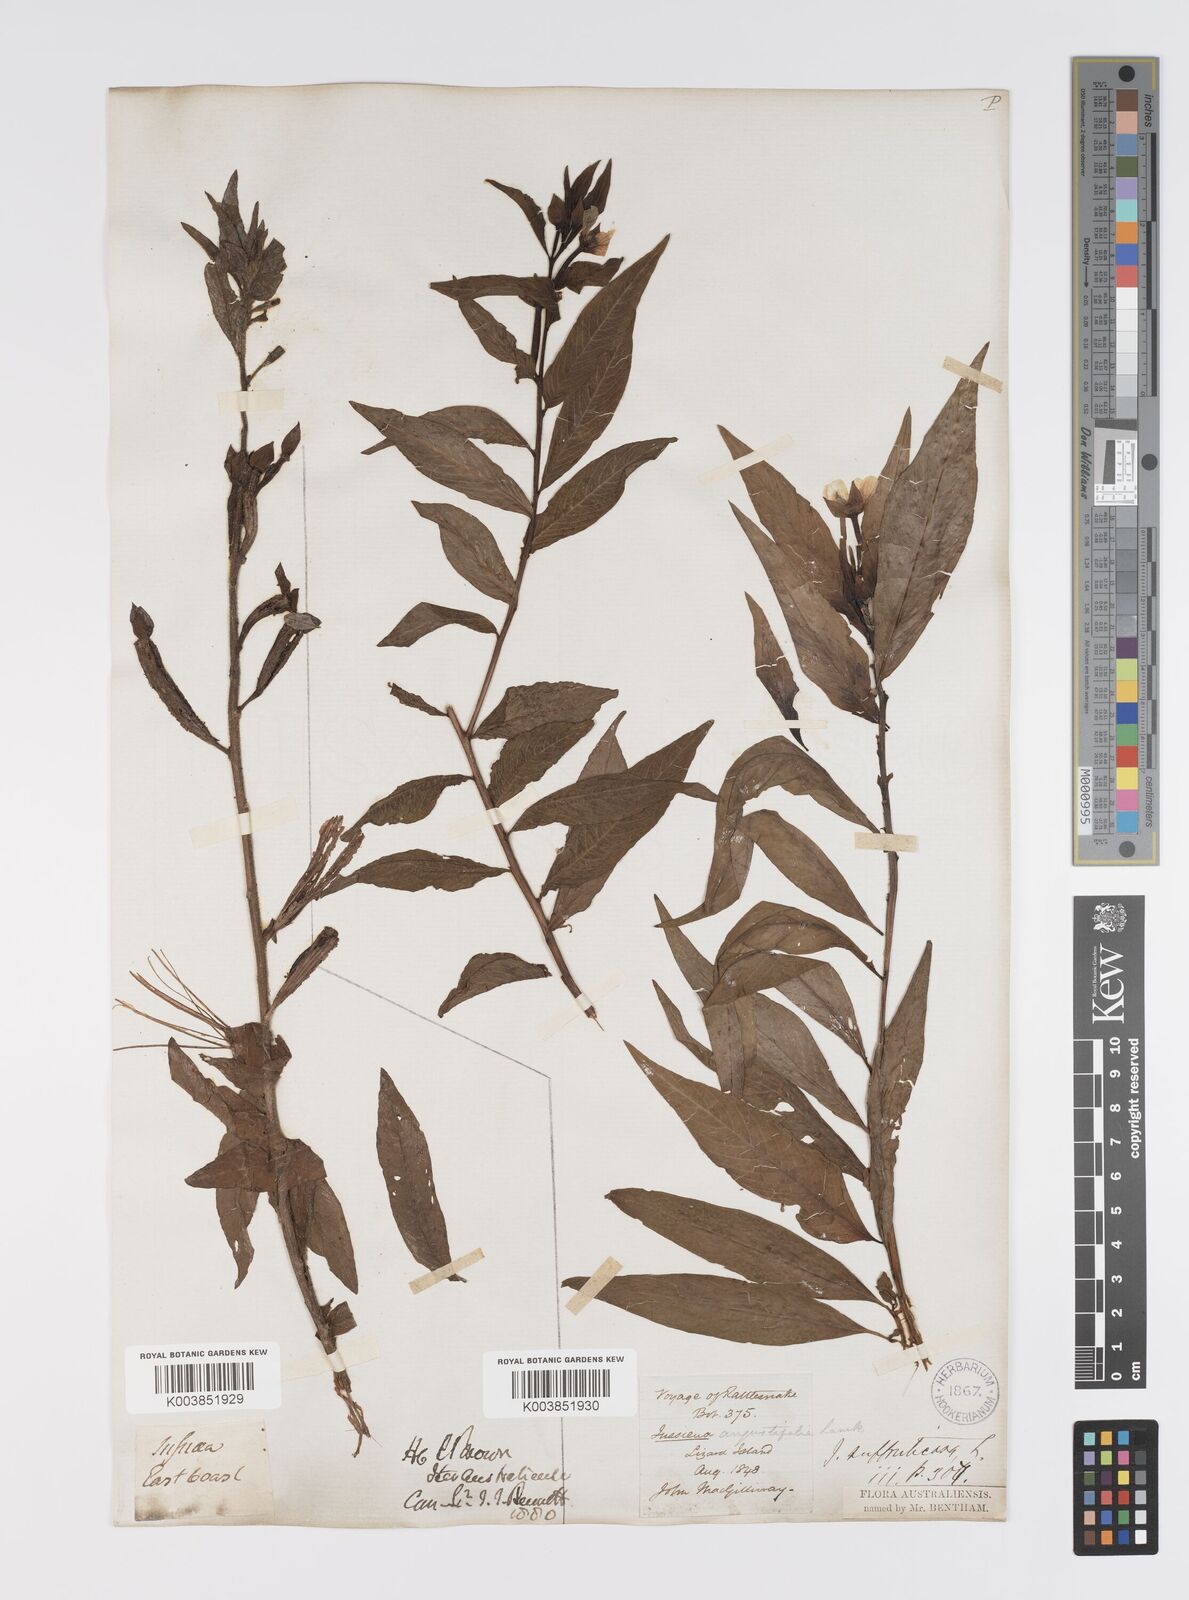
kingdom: Plantae
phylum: Tracheophyta
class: Magnoliopsida
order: Myrtales
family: Onagraceae
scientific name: Onagraceae
